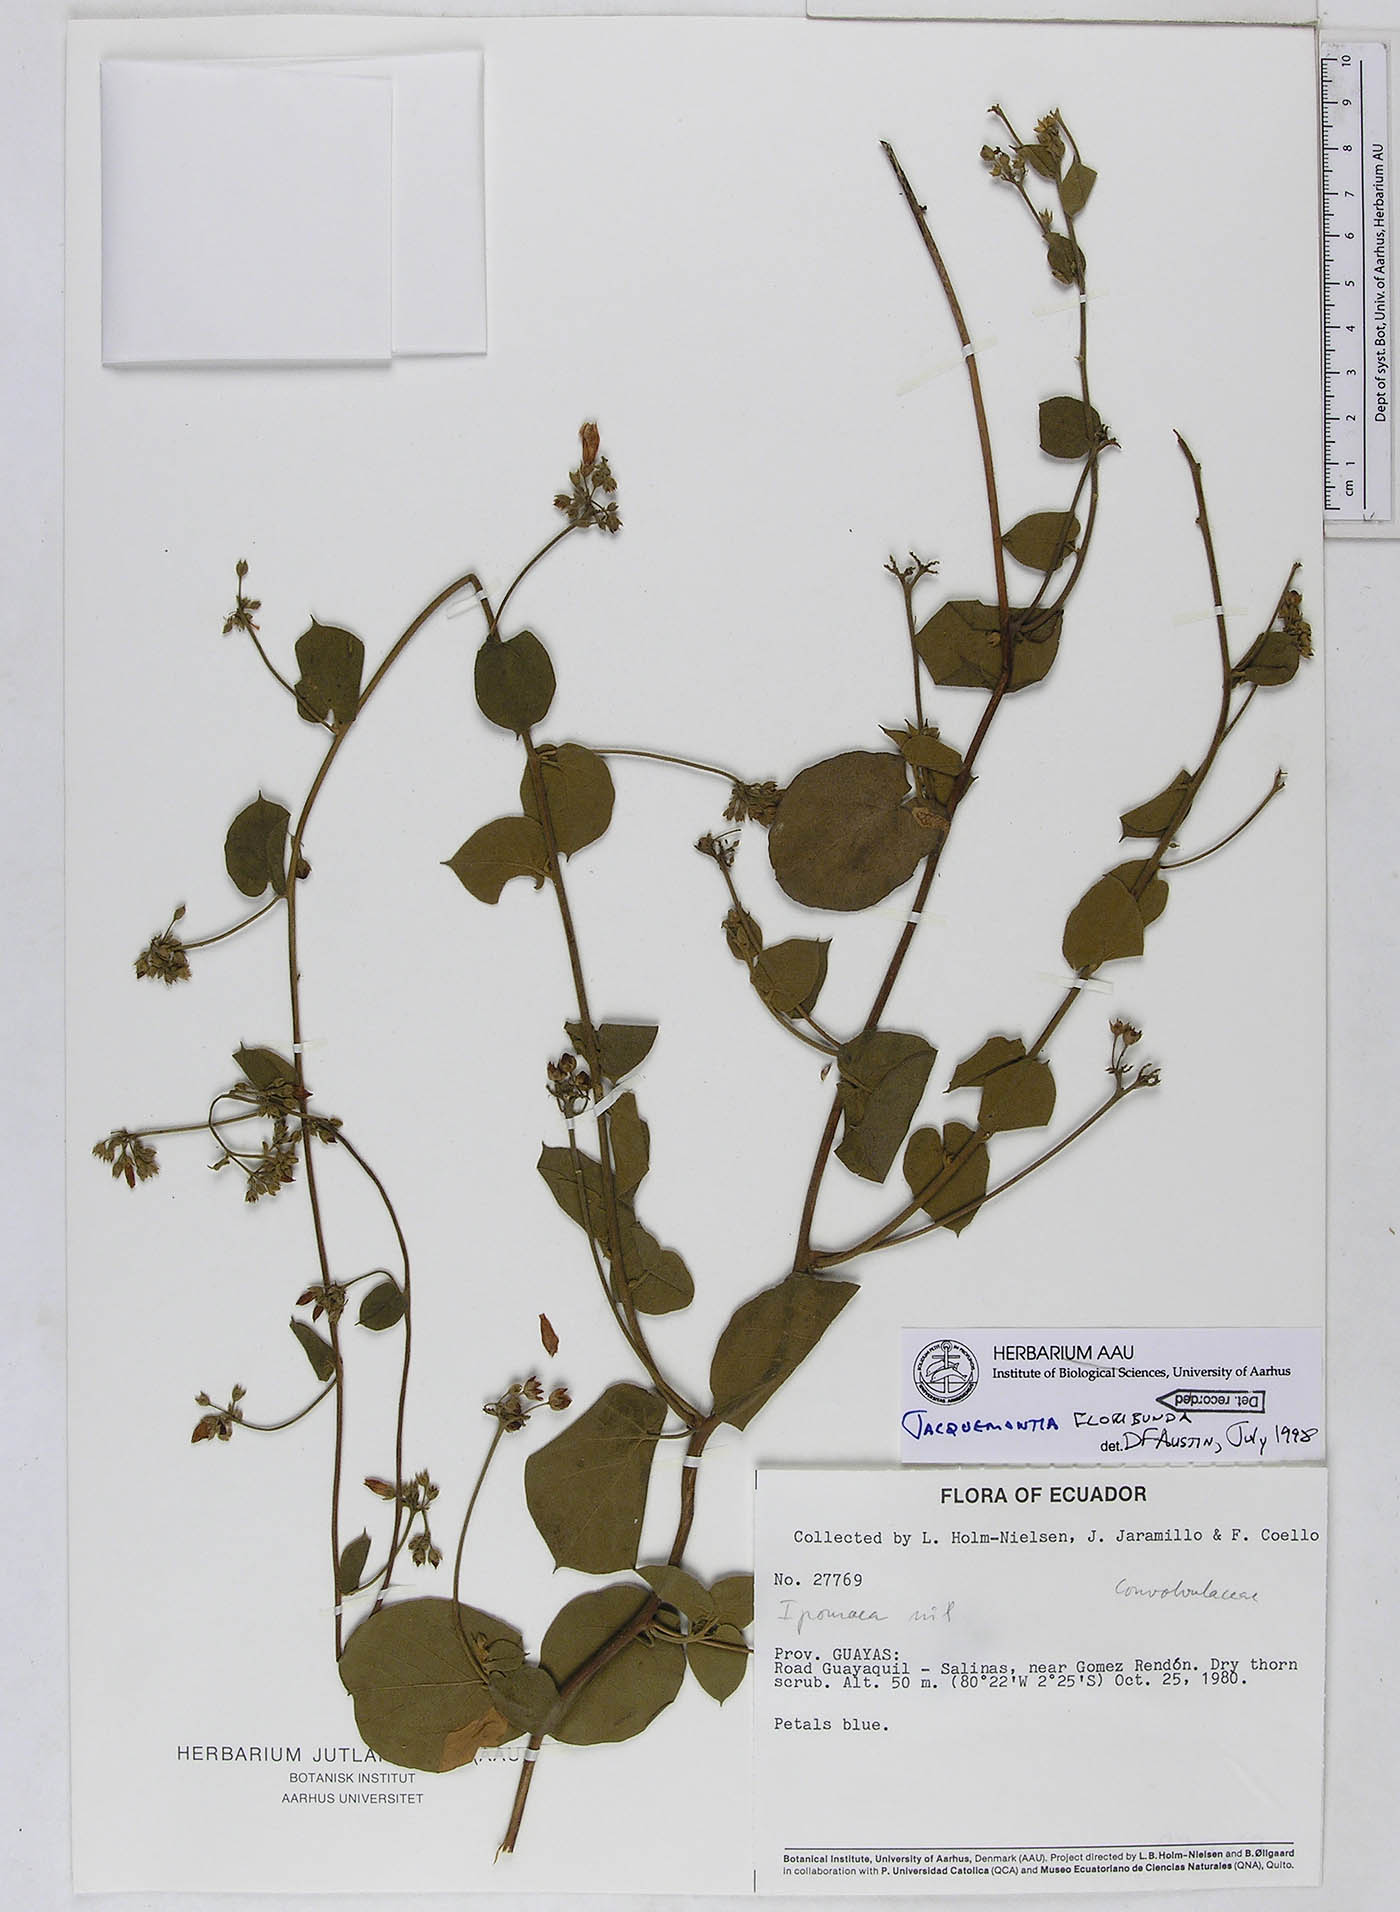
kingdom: Plantae
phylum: Tracheophyta
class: Magnoliopsida
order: Solanales
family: Convolvulaceae
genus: Jacquemontia
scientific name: Jacquemontia floribunda
